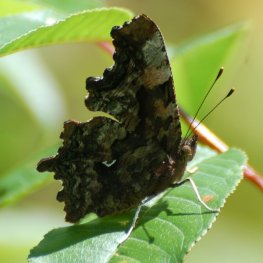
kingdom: Animalia
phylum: Arthropoda
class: Insecta
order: Lepidoptera
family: Nymphalidae
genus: Polygonia
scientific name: Polygonia faunus
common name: Green Comma
